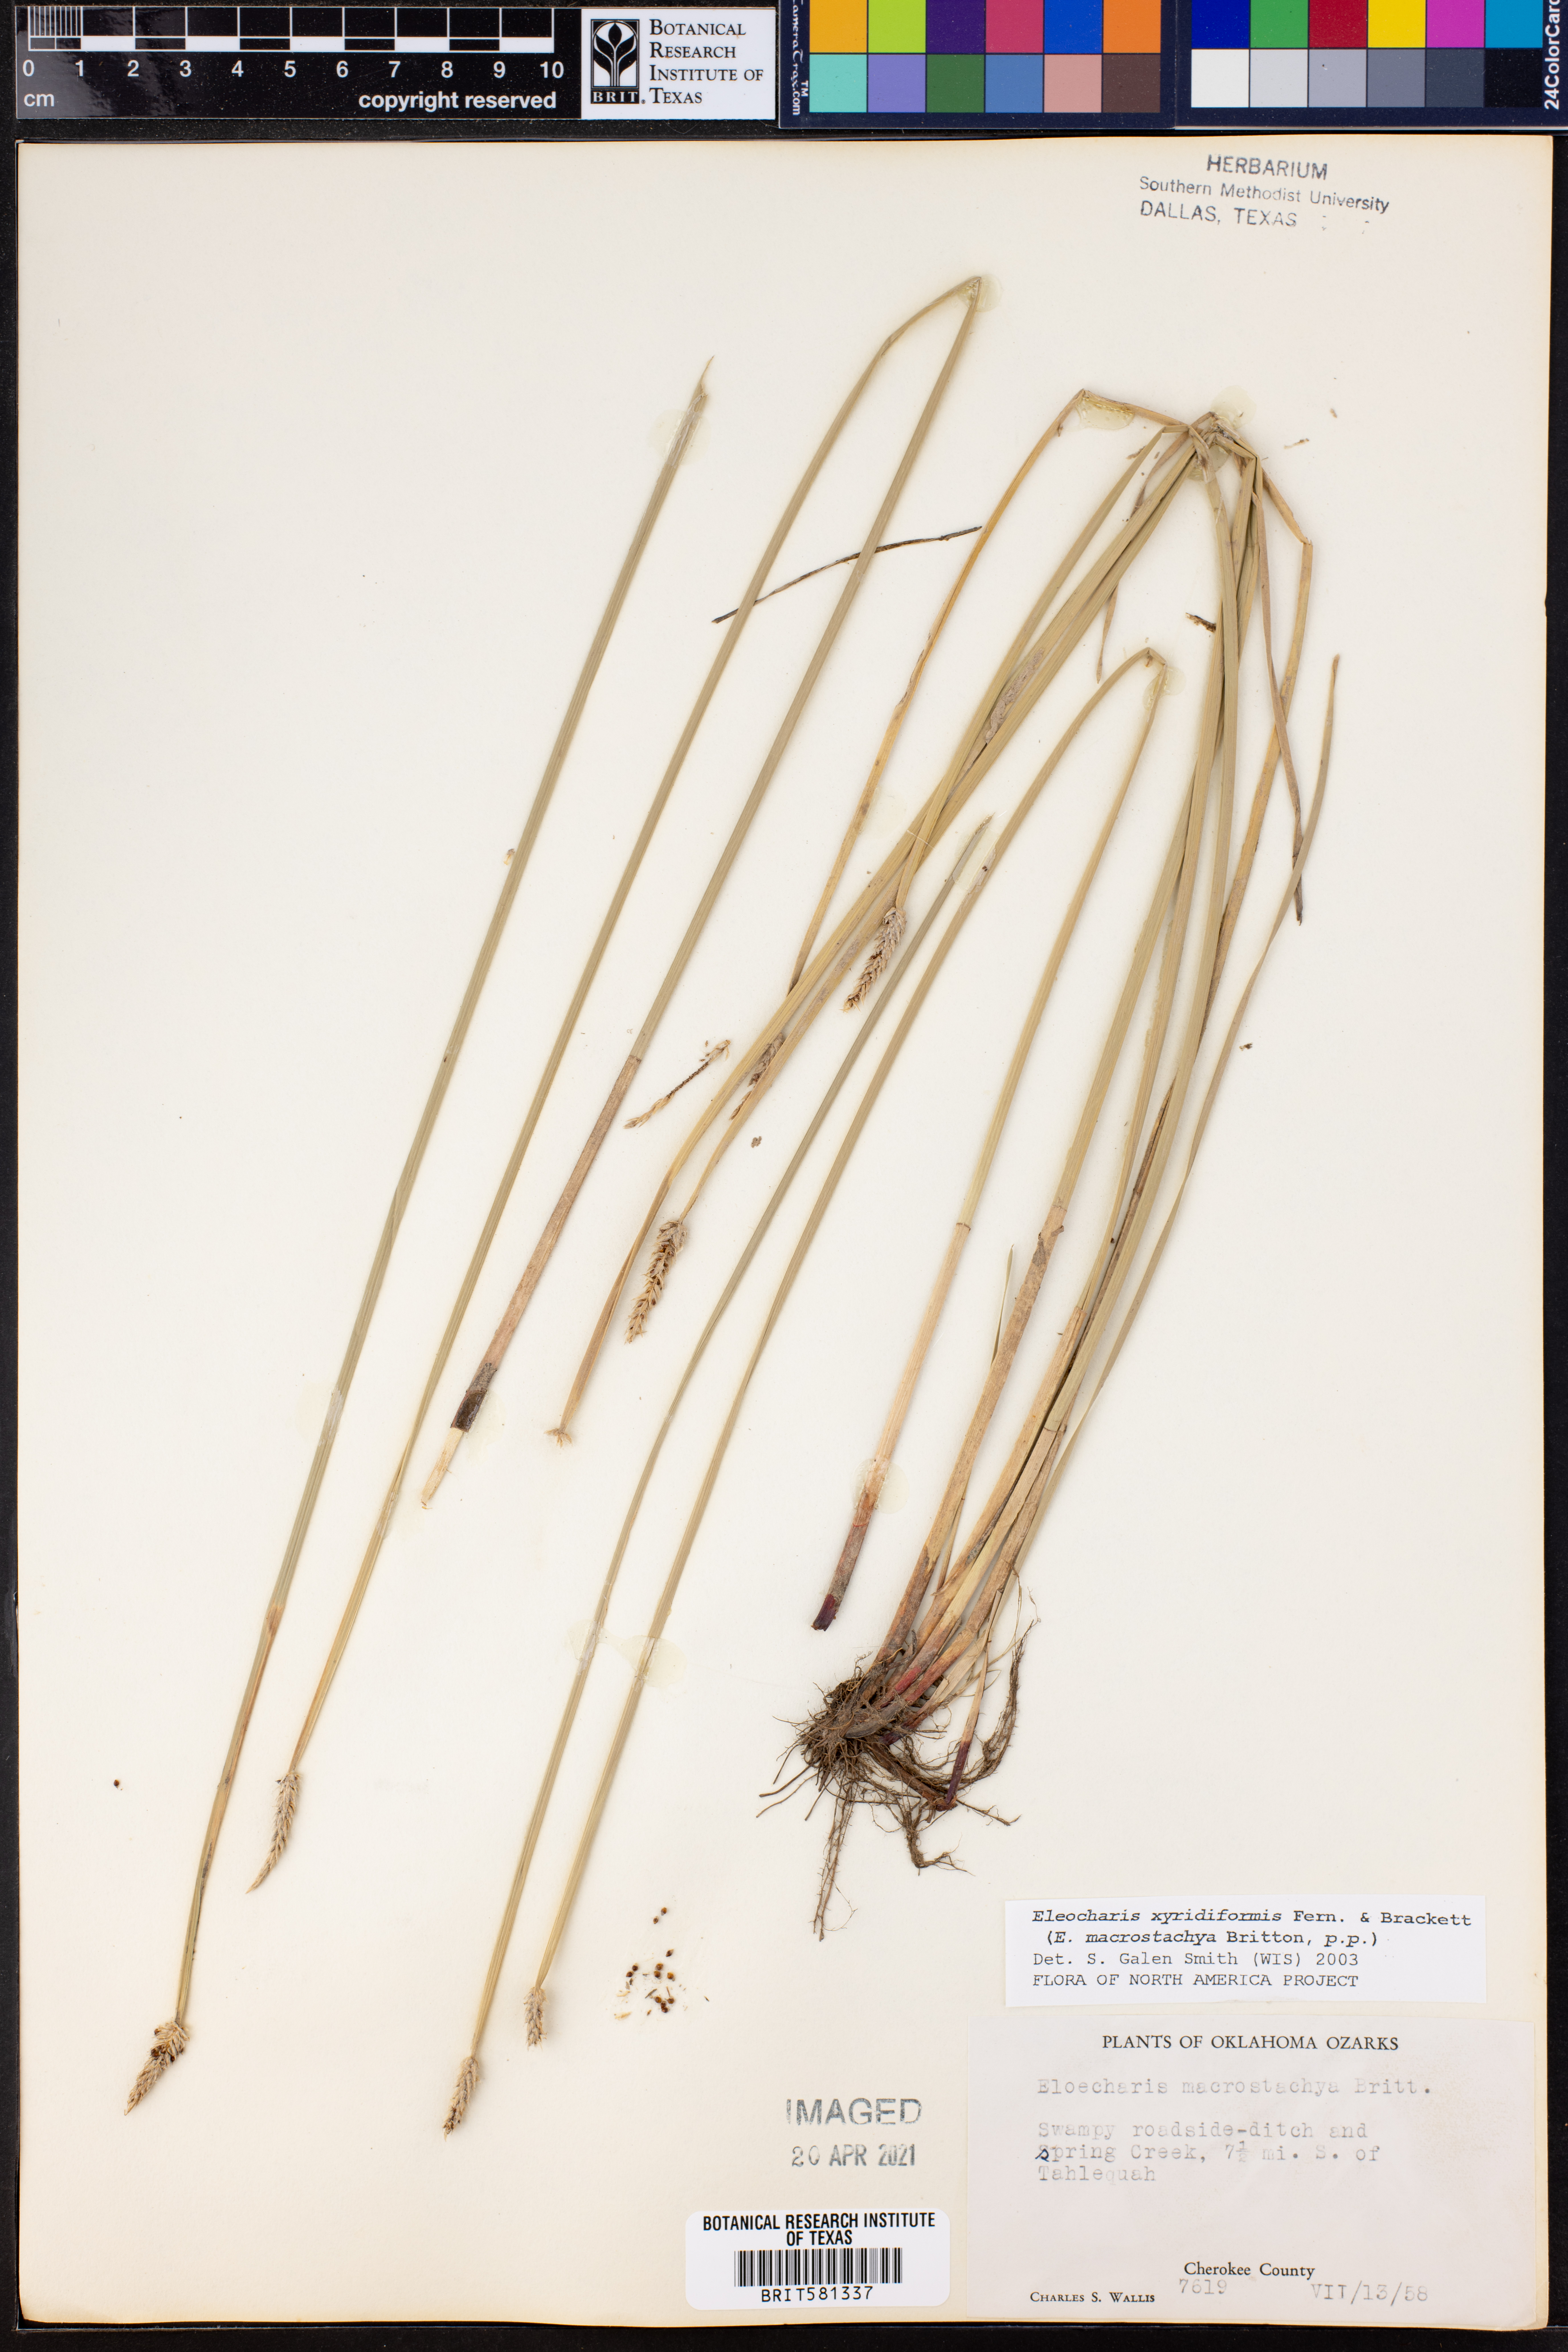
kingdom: Plantae
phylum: Tracheophyta
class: Liliopsida
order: Poales
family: Cyperaceae
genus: Eleocharis
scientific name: Eleocharis macrostachya
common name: Pale spikerush
